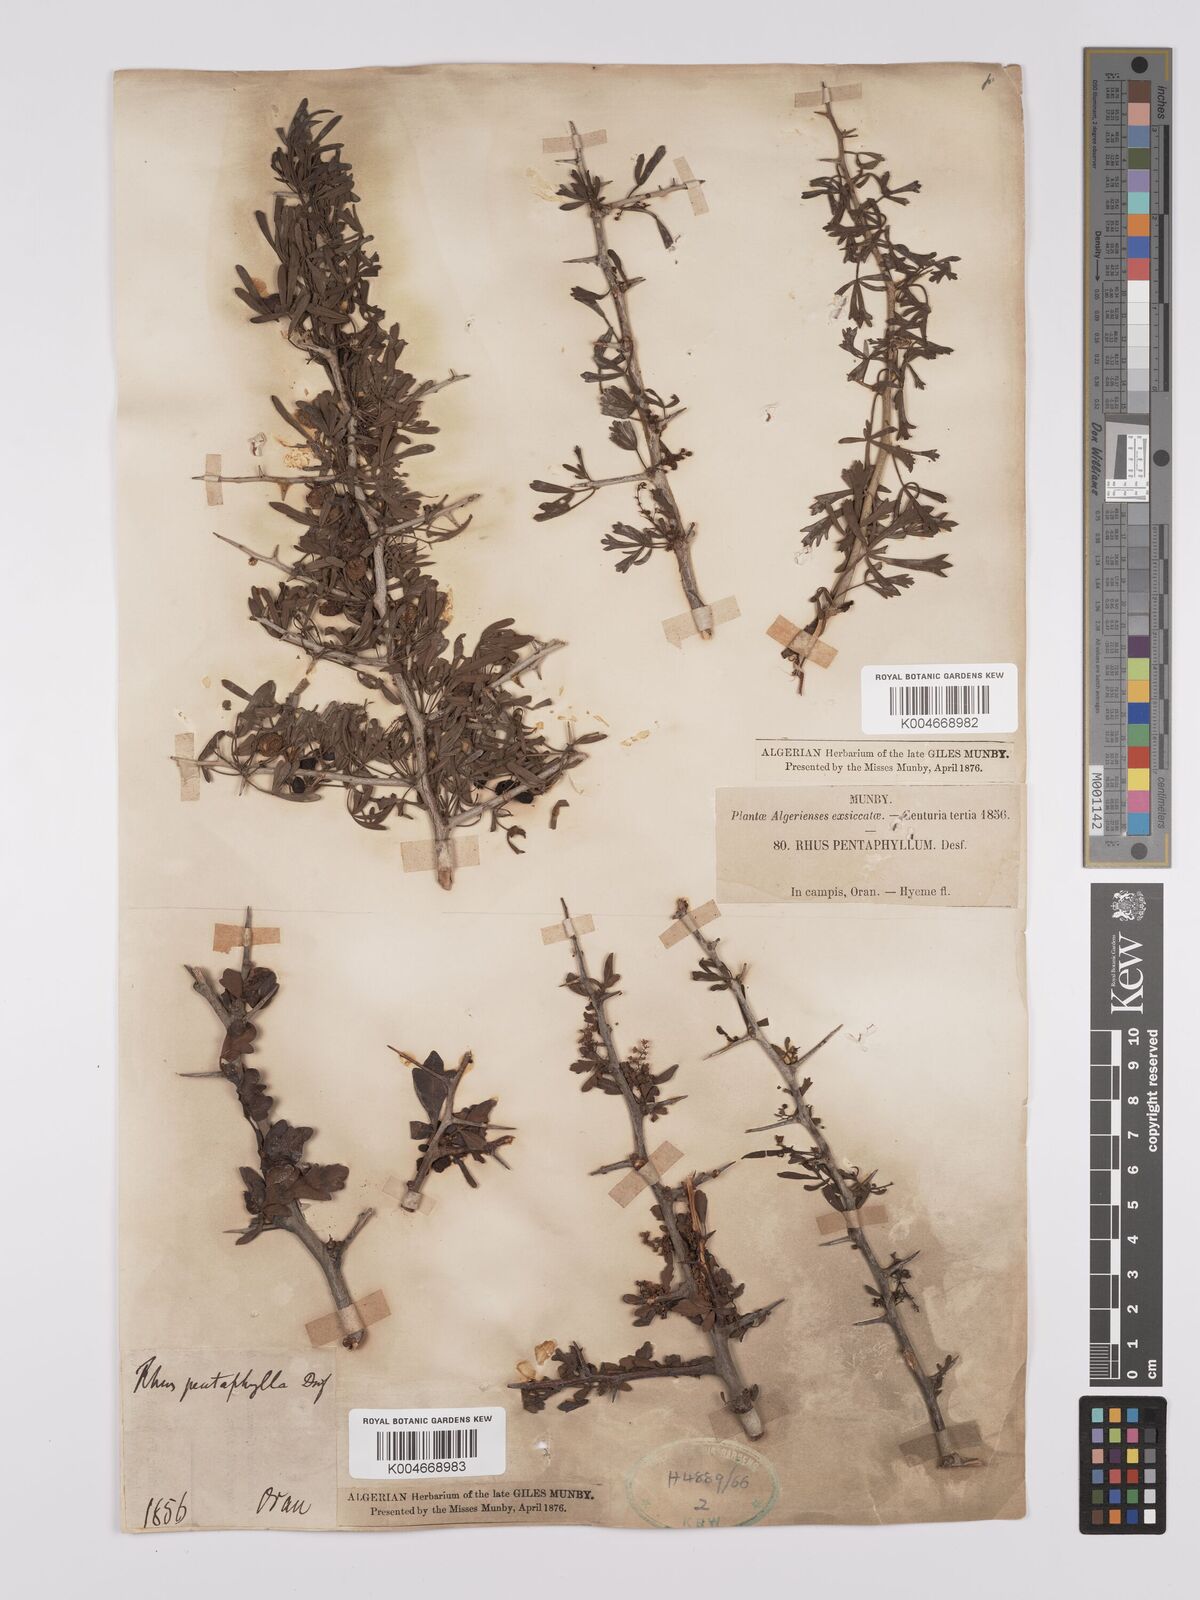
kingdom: Plantae
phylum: Tracheophyta
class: Magnoliopsida
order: Sapindales
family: Anacardiaceae
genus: Rhus
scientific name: Rhus
